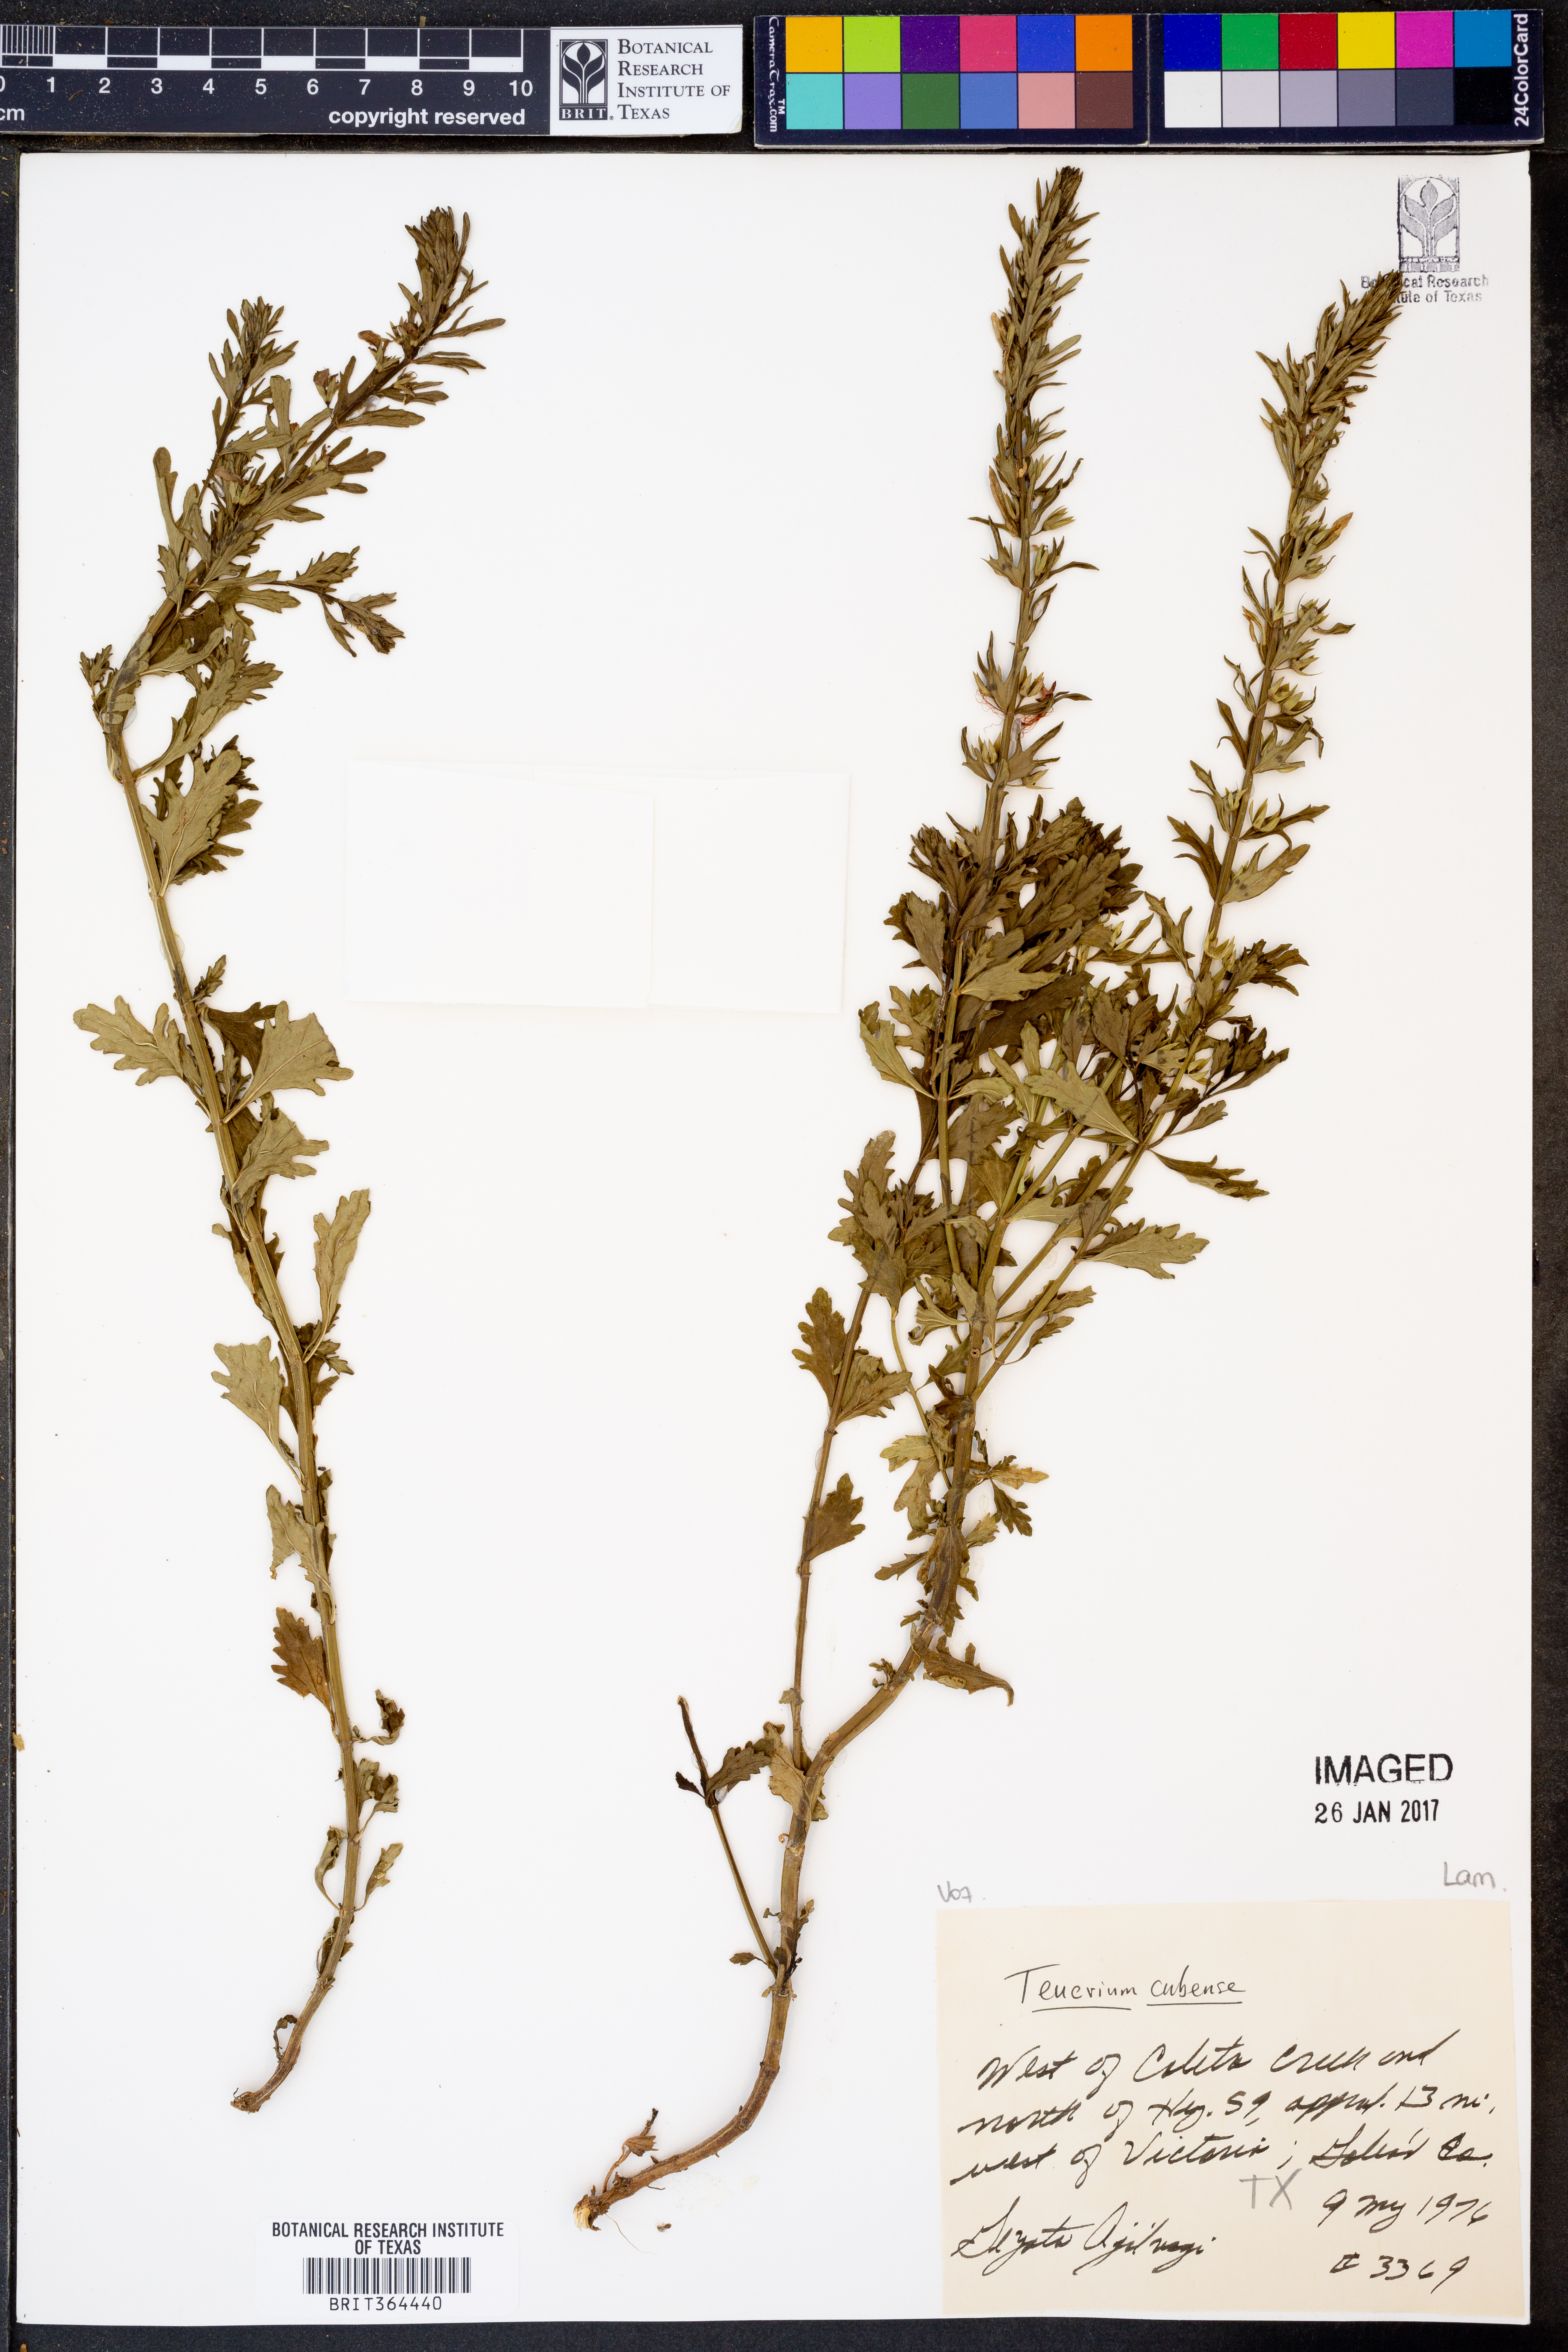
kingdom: Plantae
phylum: Tracheophyta
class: Magnoliopsida
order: Lamiales
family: Lamiaceae
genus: Teucrium
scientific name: Teucrium canadense
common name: American germander
